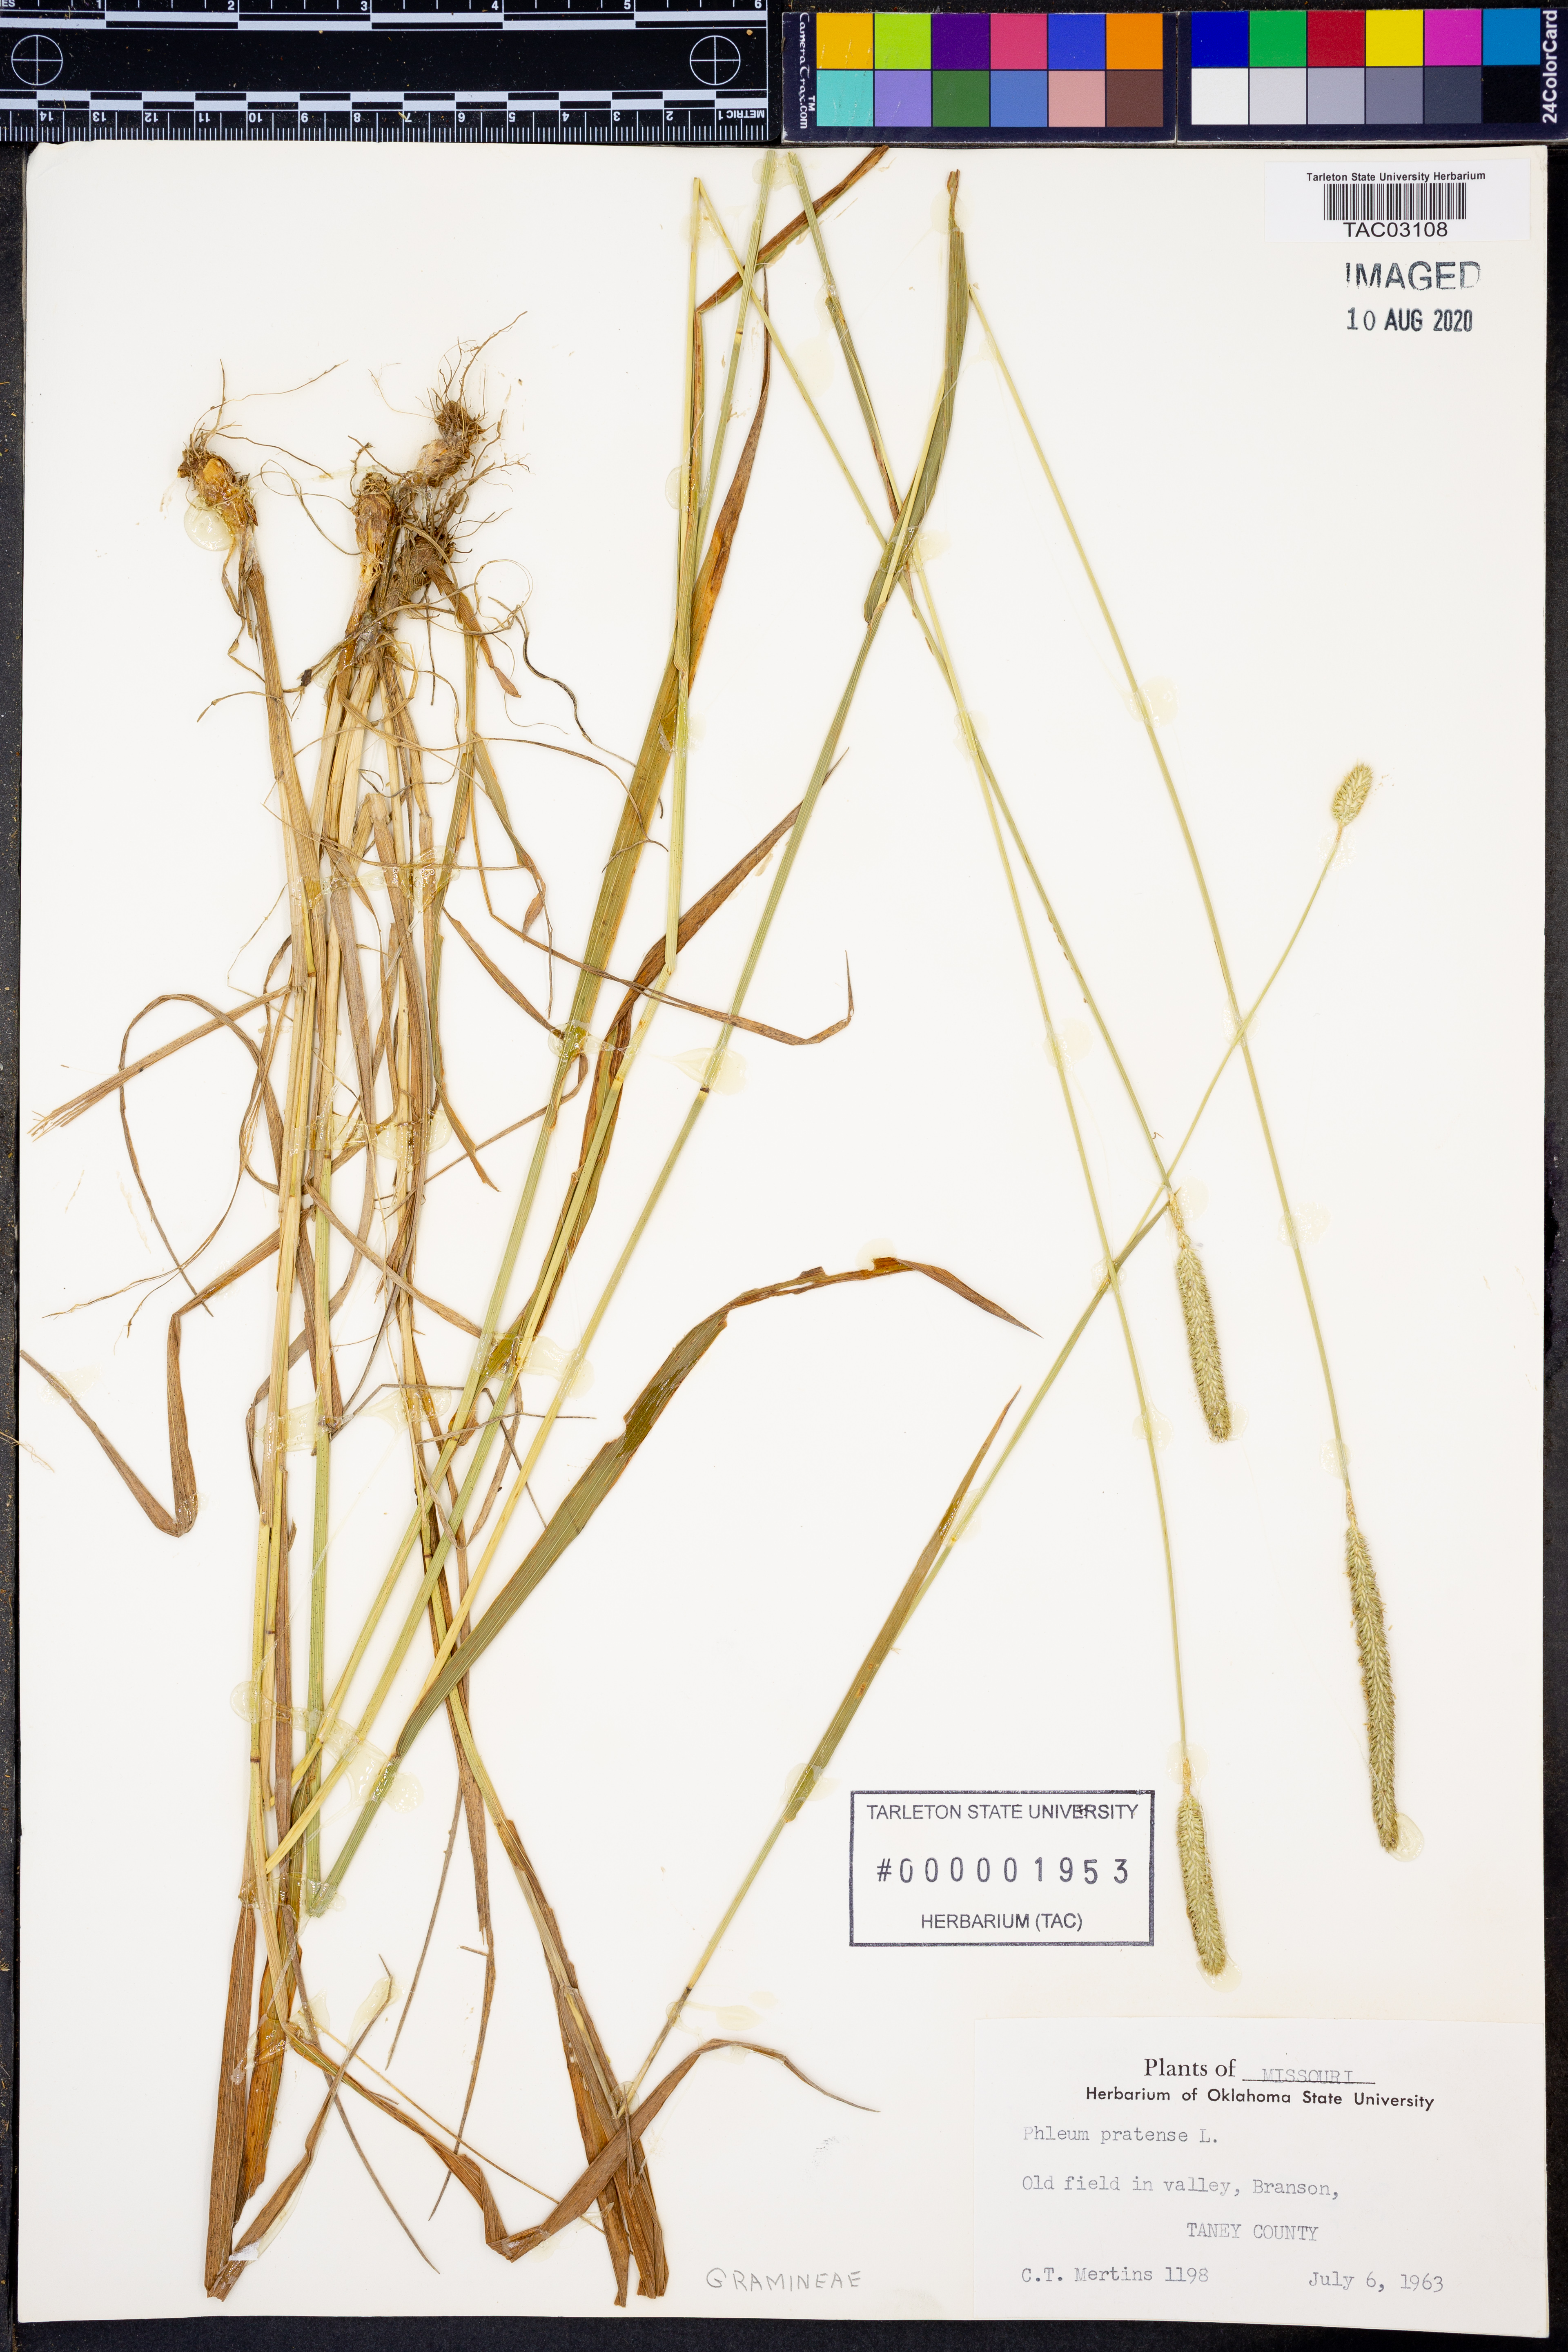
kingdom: Plantae
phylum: Tracheophyta
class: Liliopsida
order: Poales
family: Poaceae
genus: Phleum
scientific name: Phleum pratense
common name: Timothy grass
